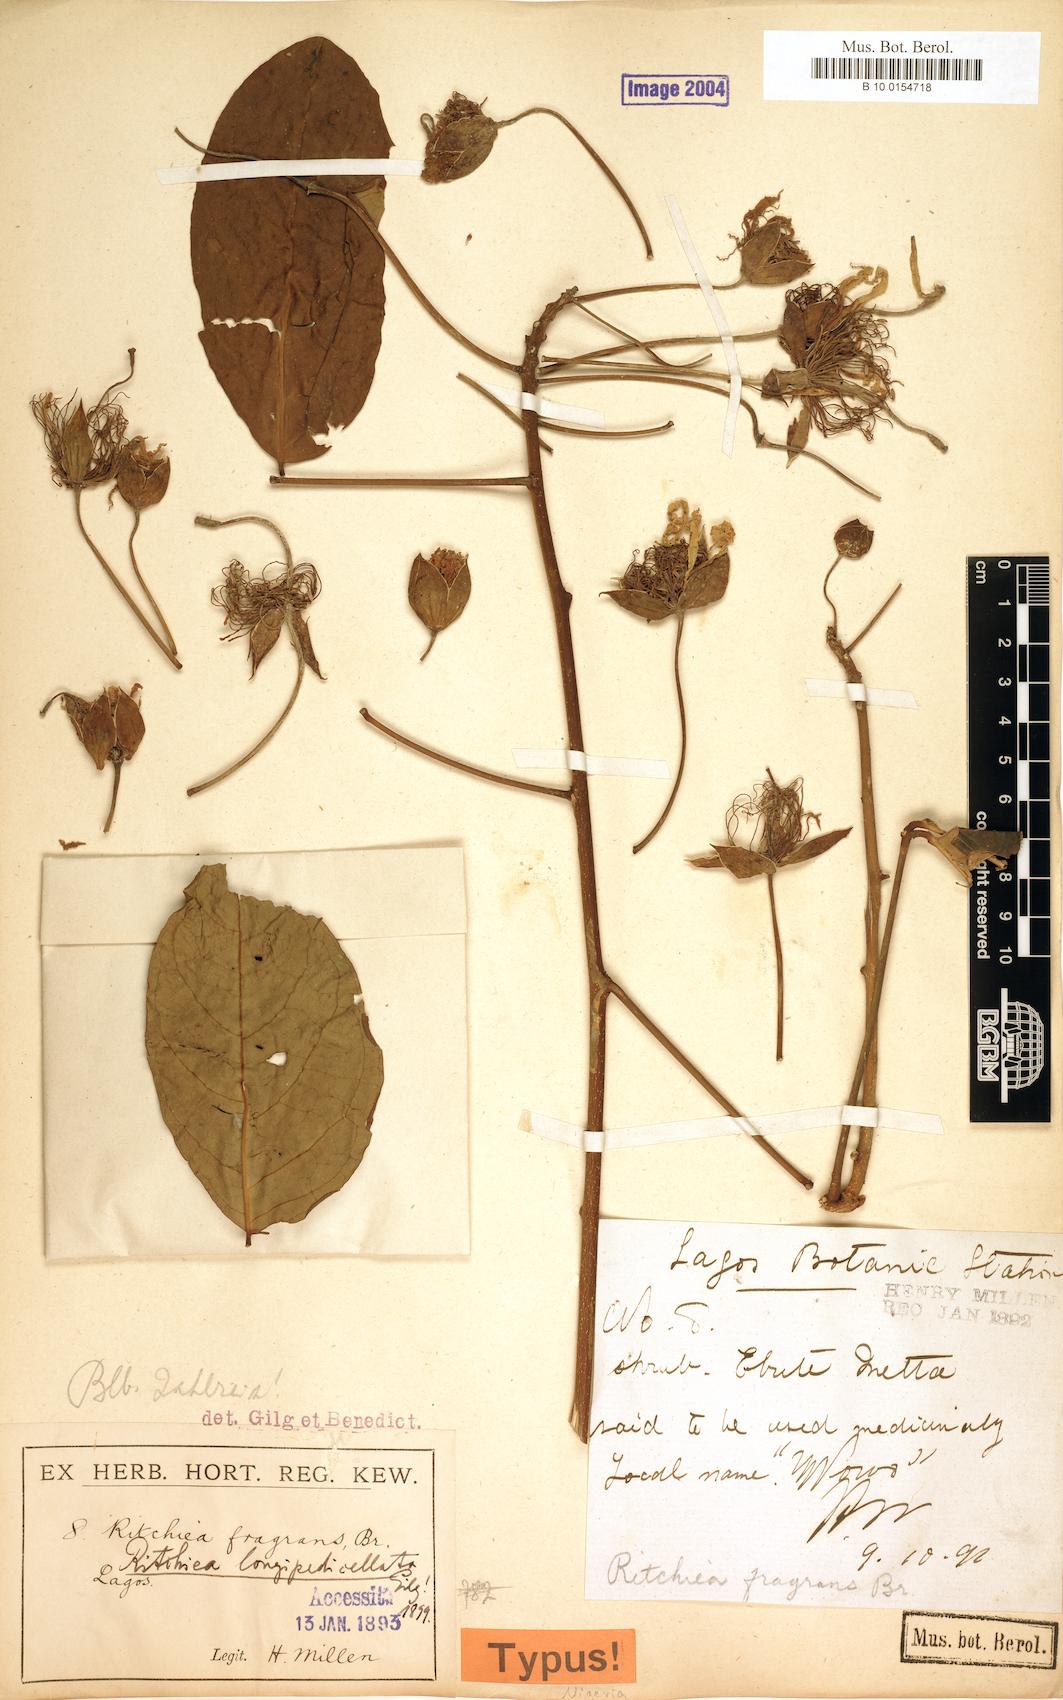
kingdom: Plantae
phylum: Tracheophyta
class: Magnoliopsida
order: Brassicales
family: Capparaceae
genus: Ritchiea
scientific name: Ritchiea capparoides
